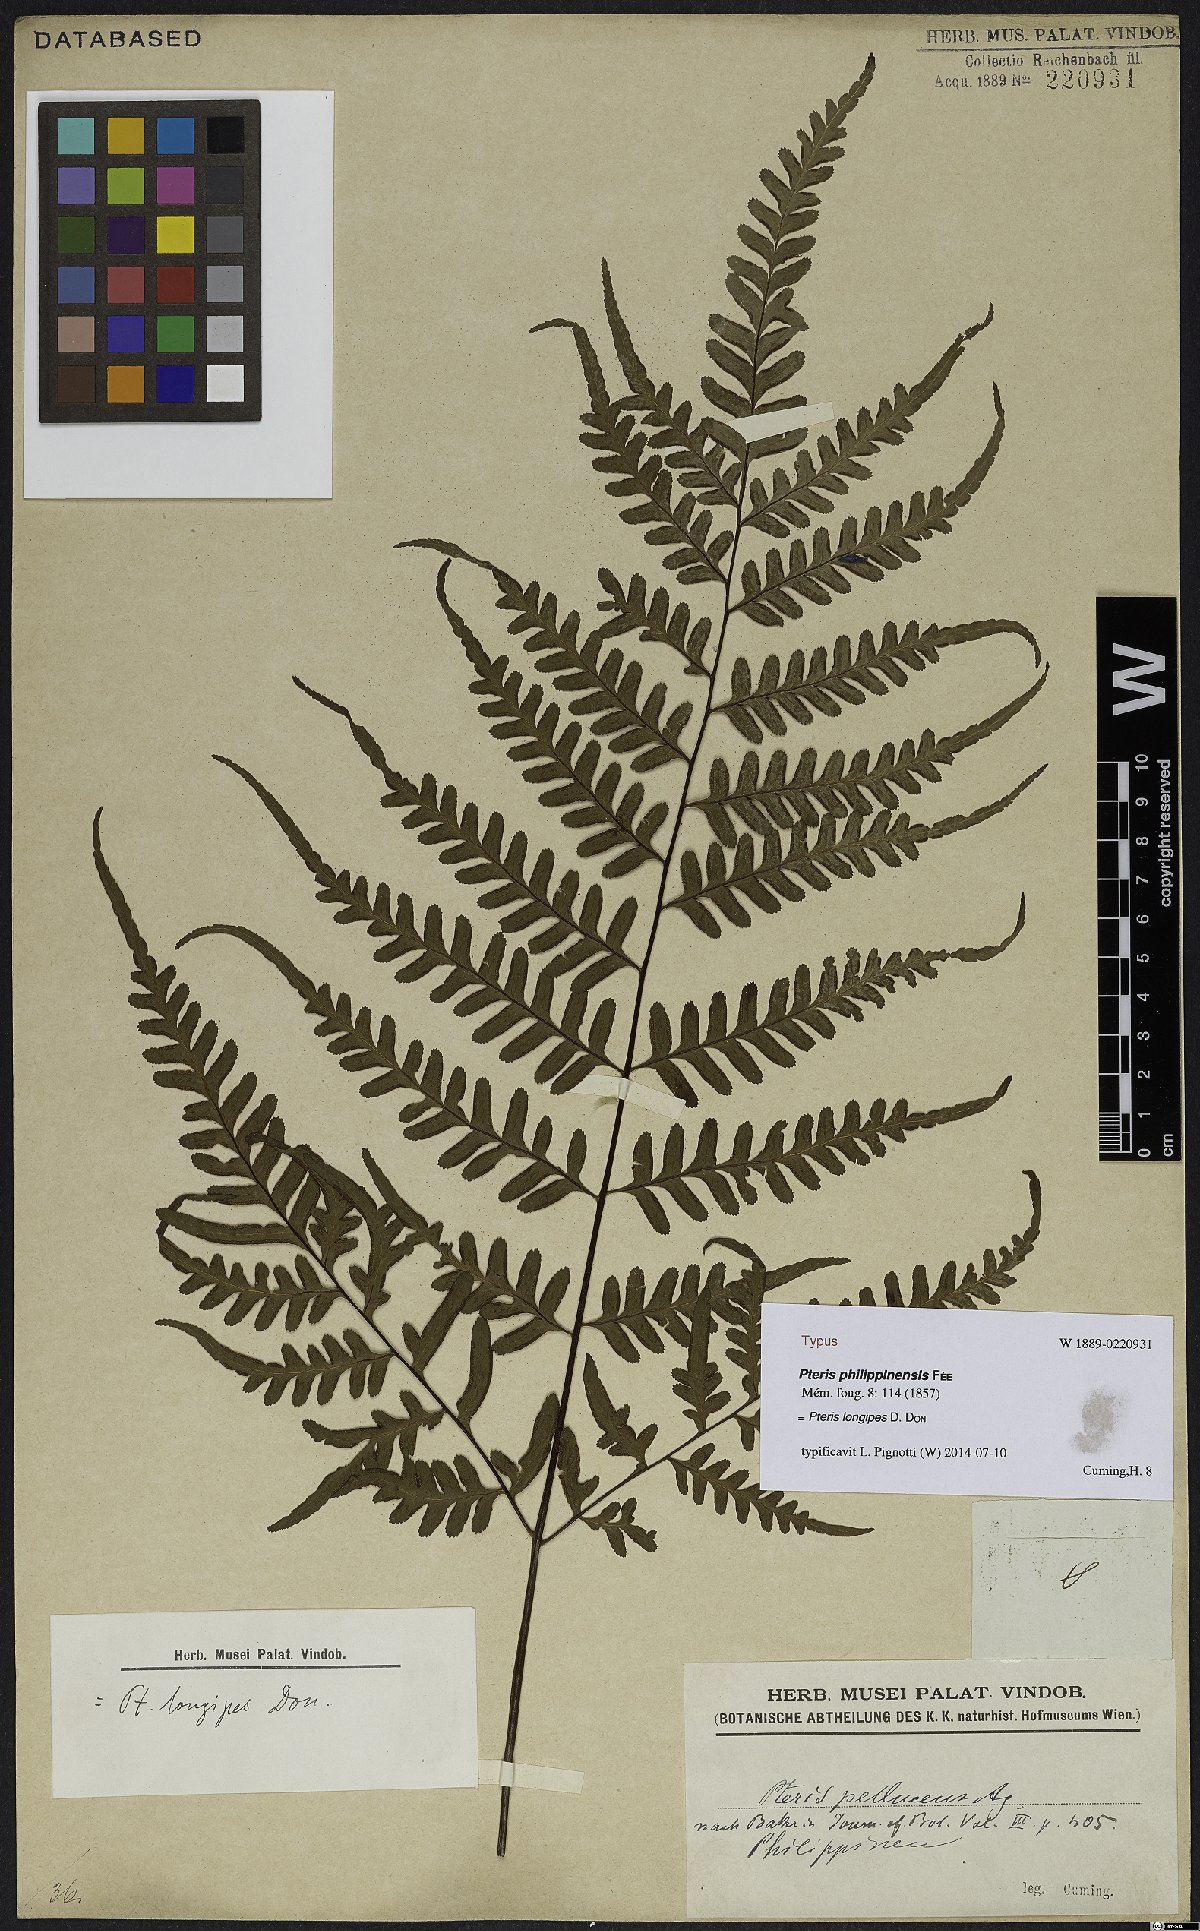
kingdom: Plantae
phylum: Tracheophyta
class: Polypodiopsida
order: Polypodiales
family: Pteridaceae
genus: Pteris
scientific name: Pteris longipes
